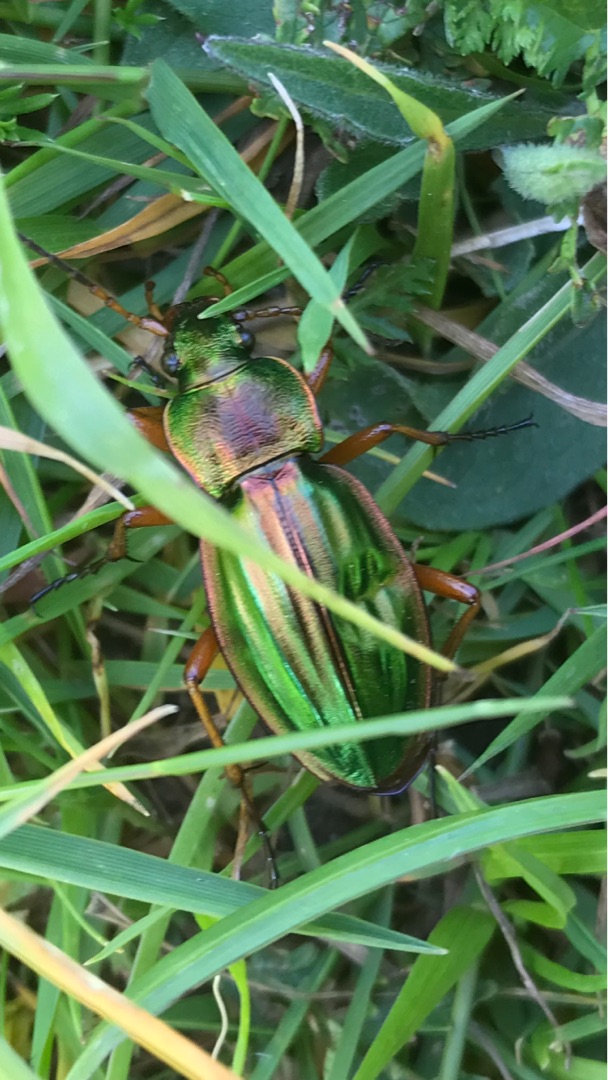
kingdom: Animalia
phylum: Arthropoda
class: Insecta
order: Coleoptera
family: Carabidae
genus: Carabus
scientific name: Carabus auratus
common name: Stor guldløber
